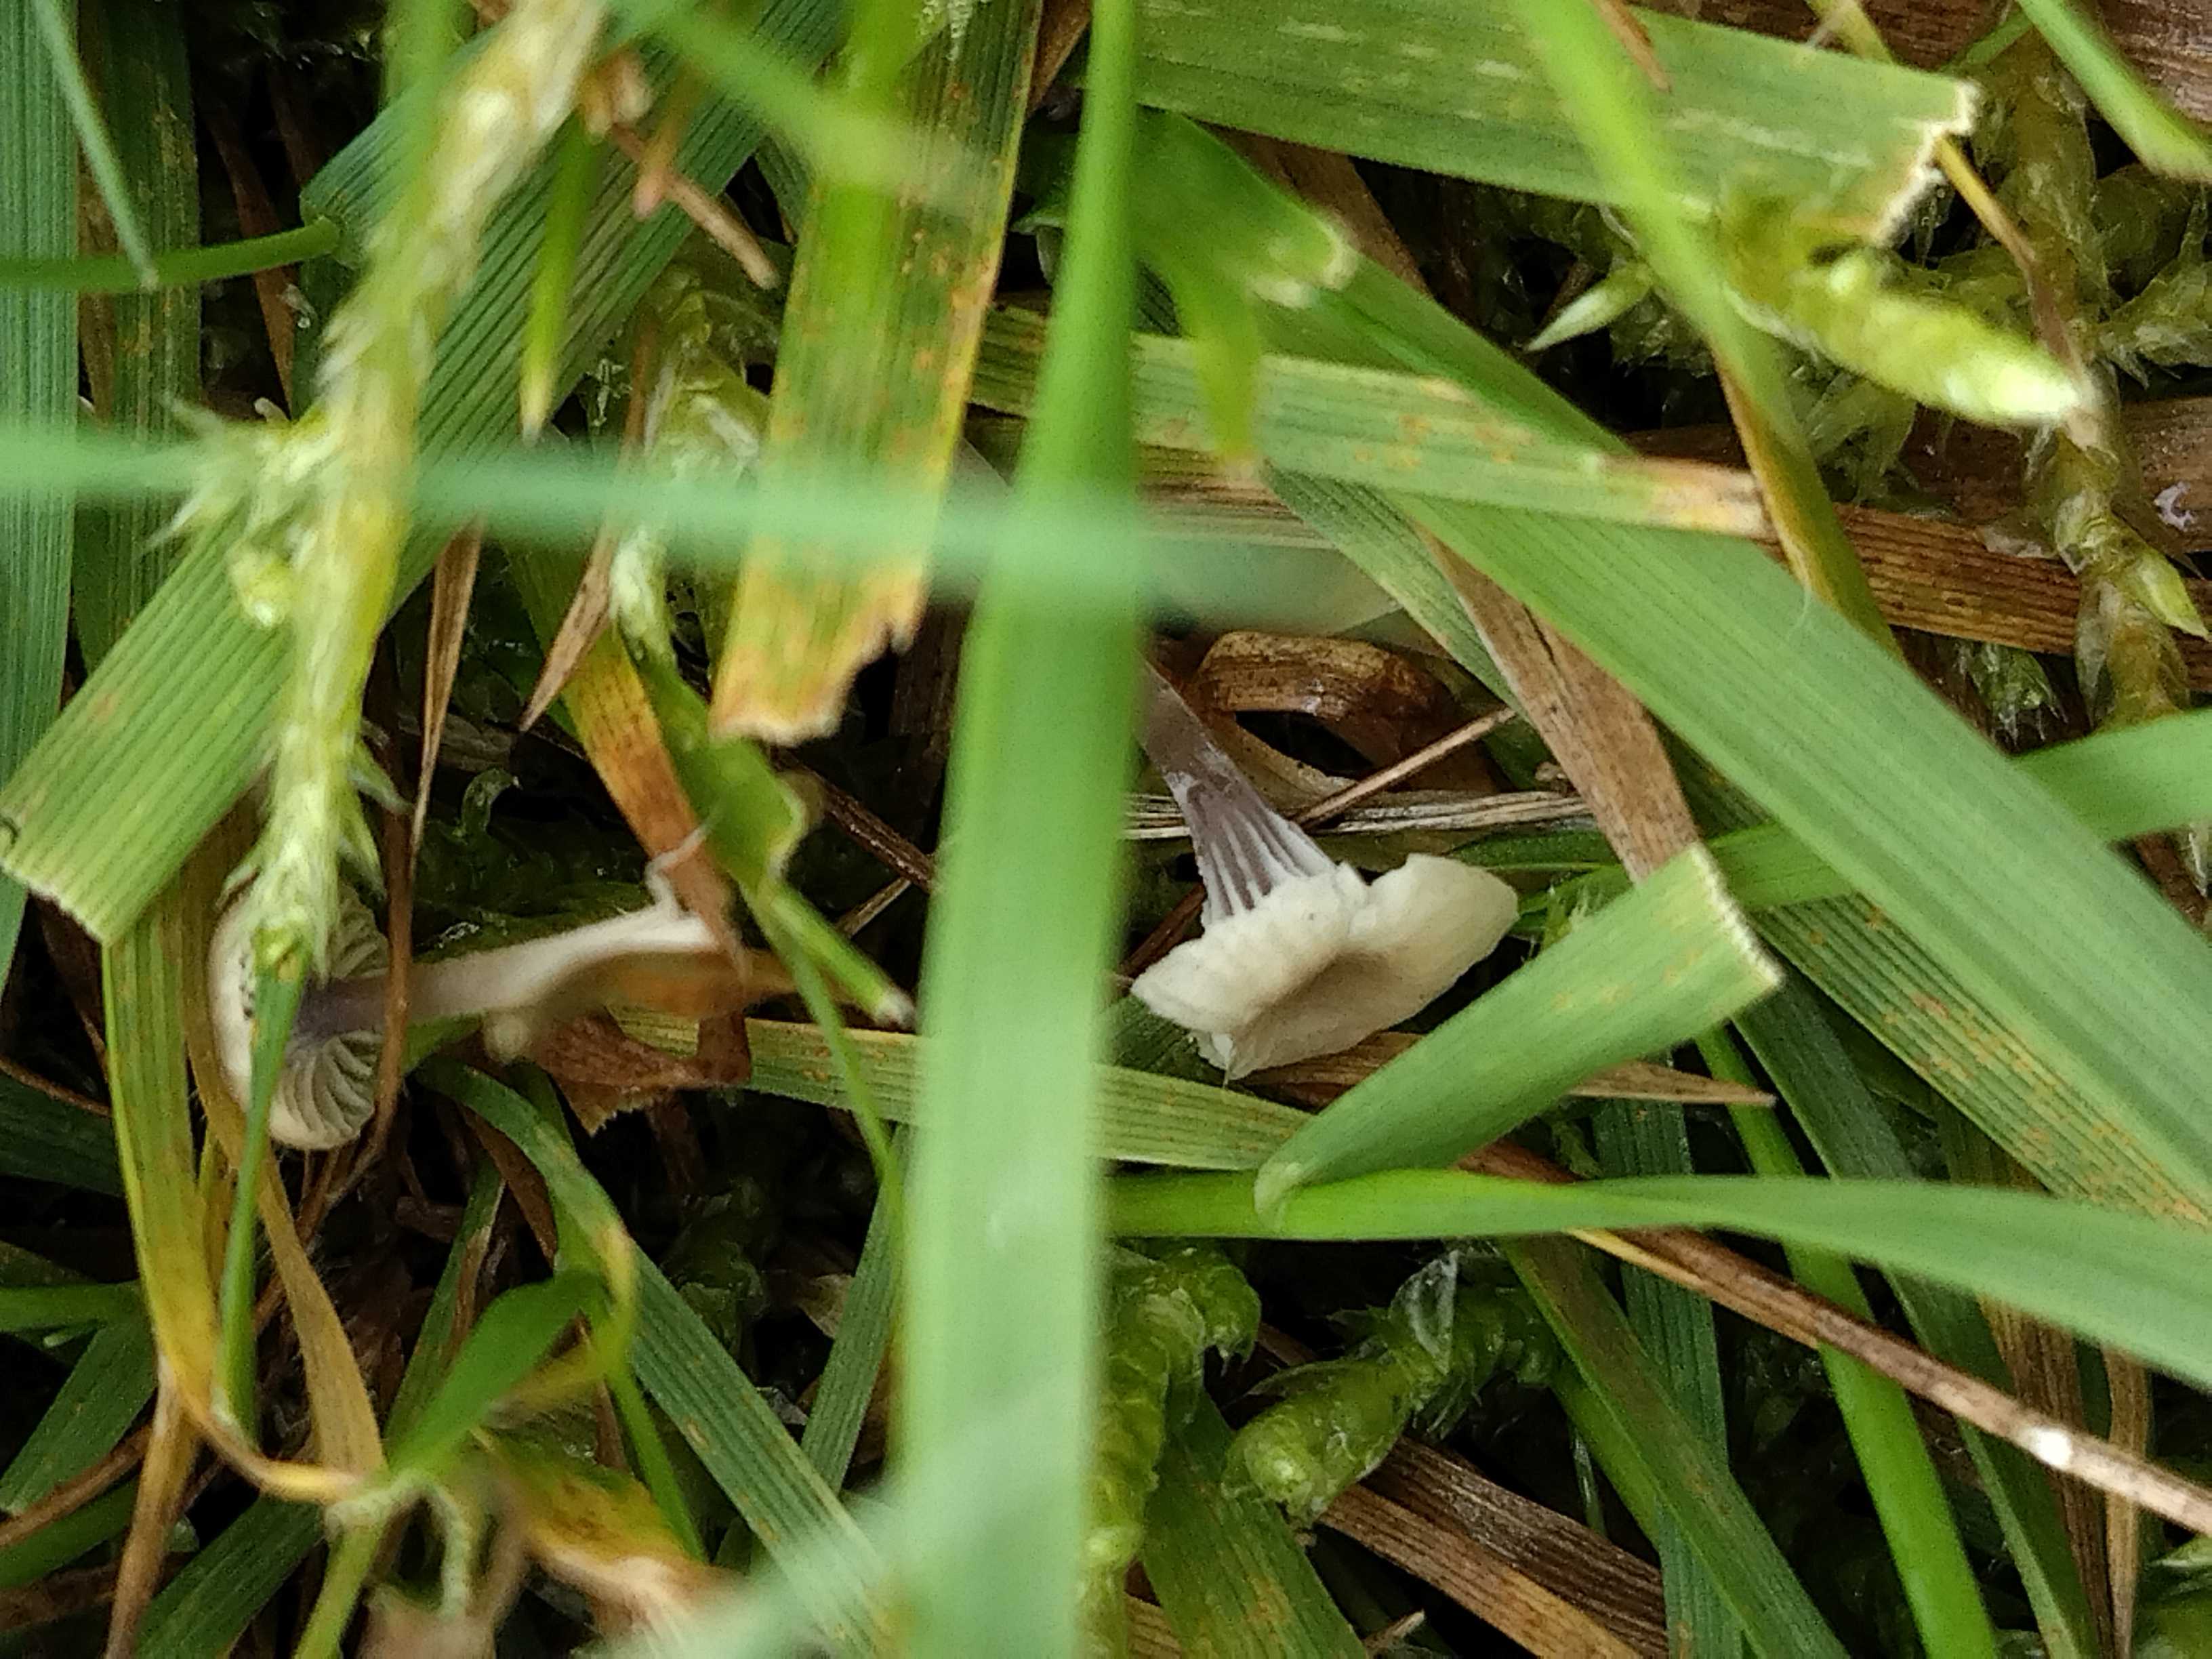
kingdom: Fungi
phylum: Basidiomycota
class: Agaricomycetes
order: Hymenochaetales
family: Rickenellaceae
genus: Rickenella
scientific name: Rickenella swartzii
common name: finstokket mosnavlehat
